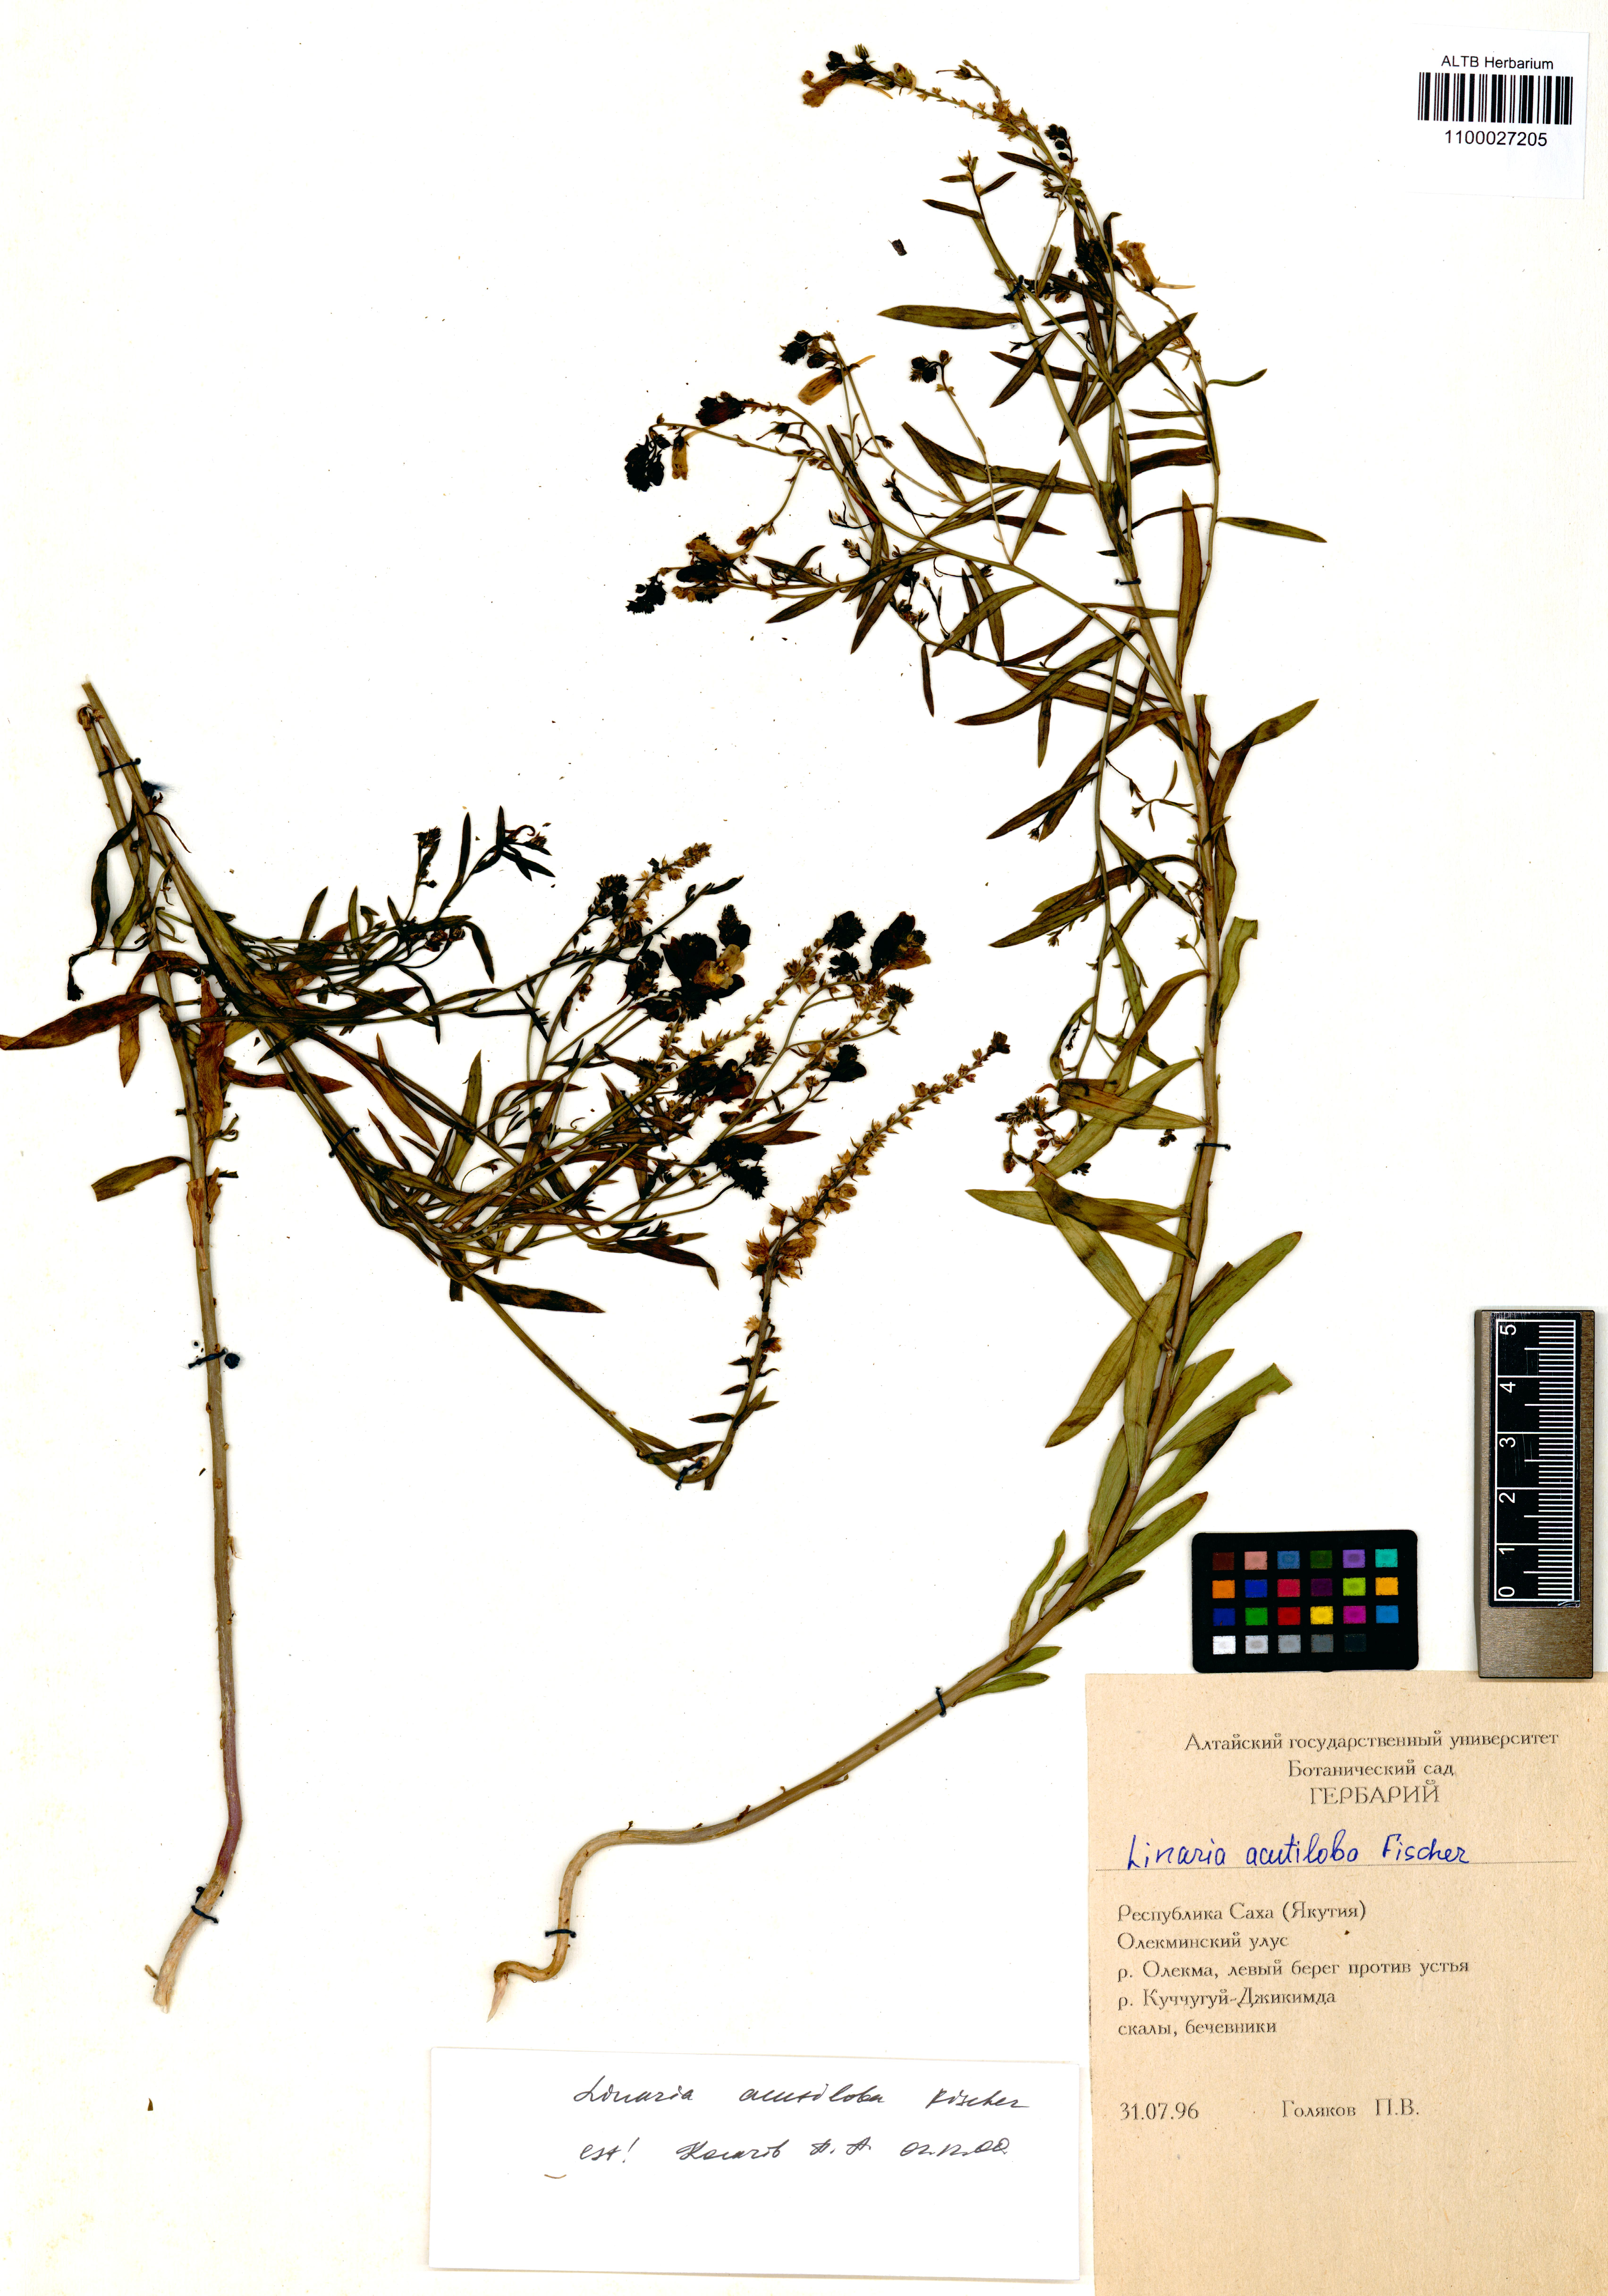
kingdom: Plantae
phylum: Tracheophyta
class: Magnoliopsida
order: Lamiales
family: Plantaginaceae
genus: Linaria
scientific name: Linaria acutiloba
